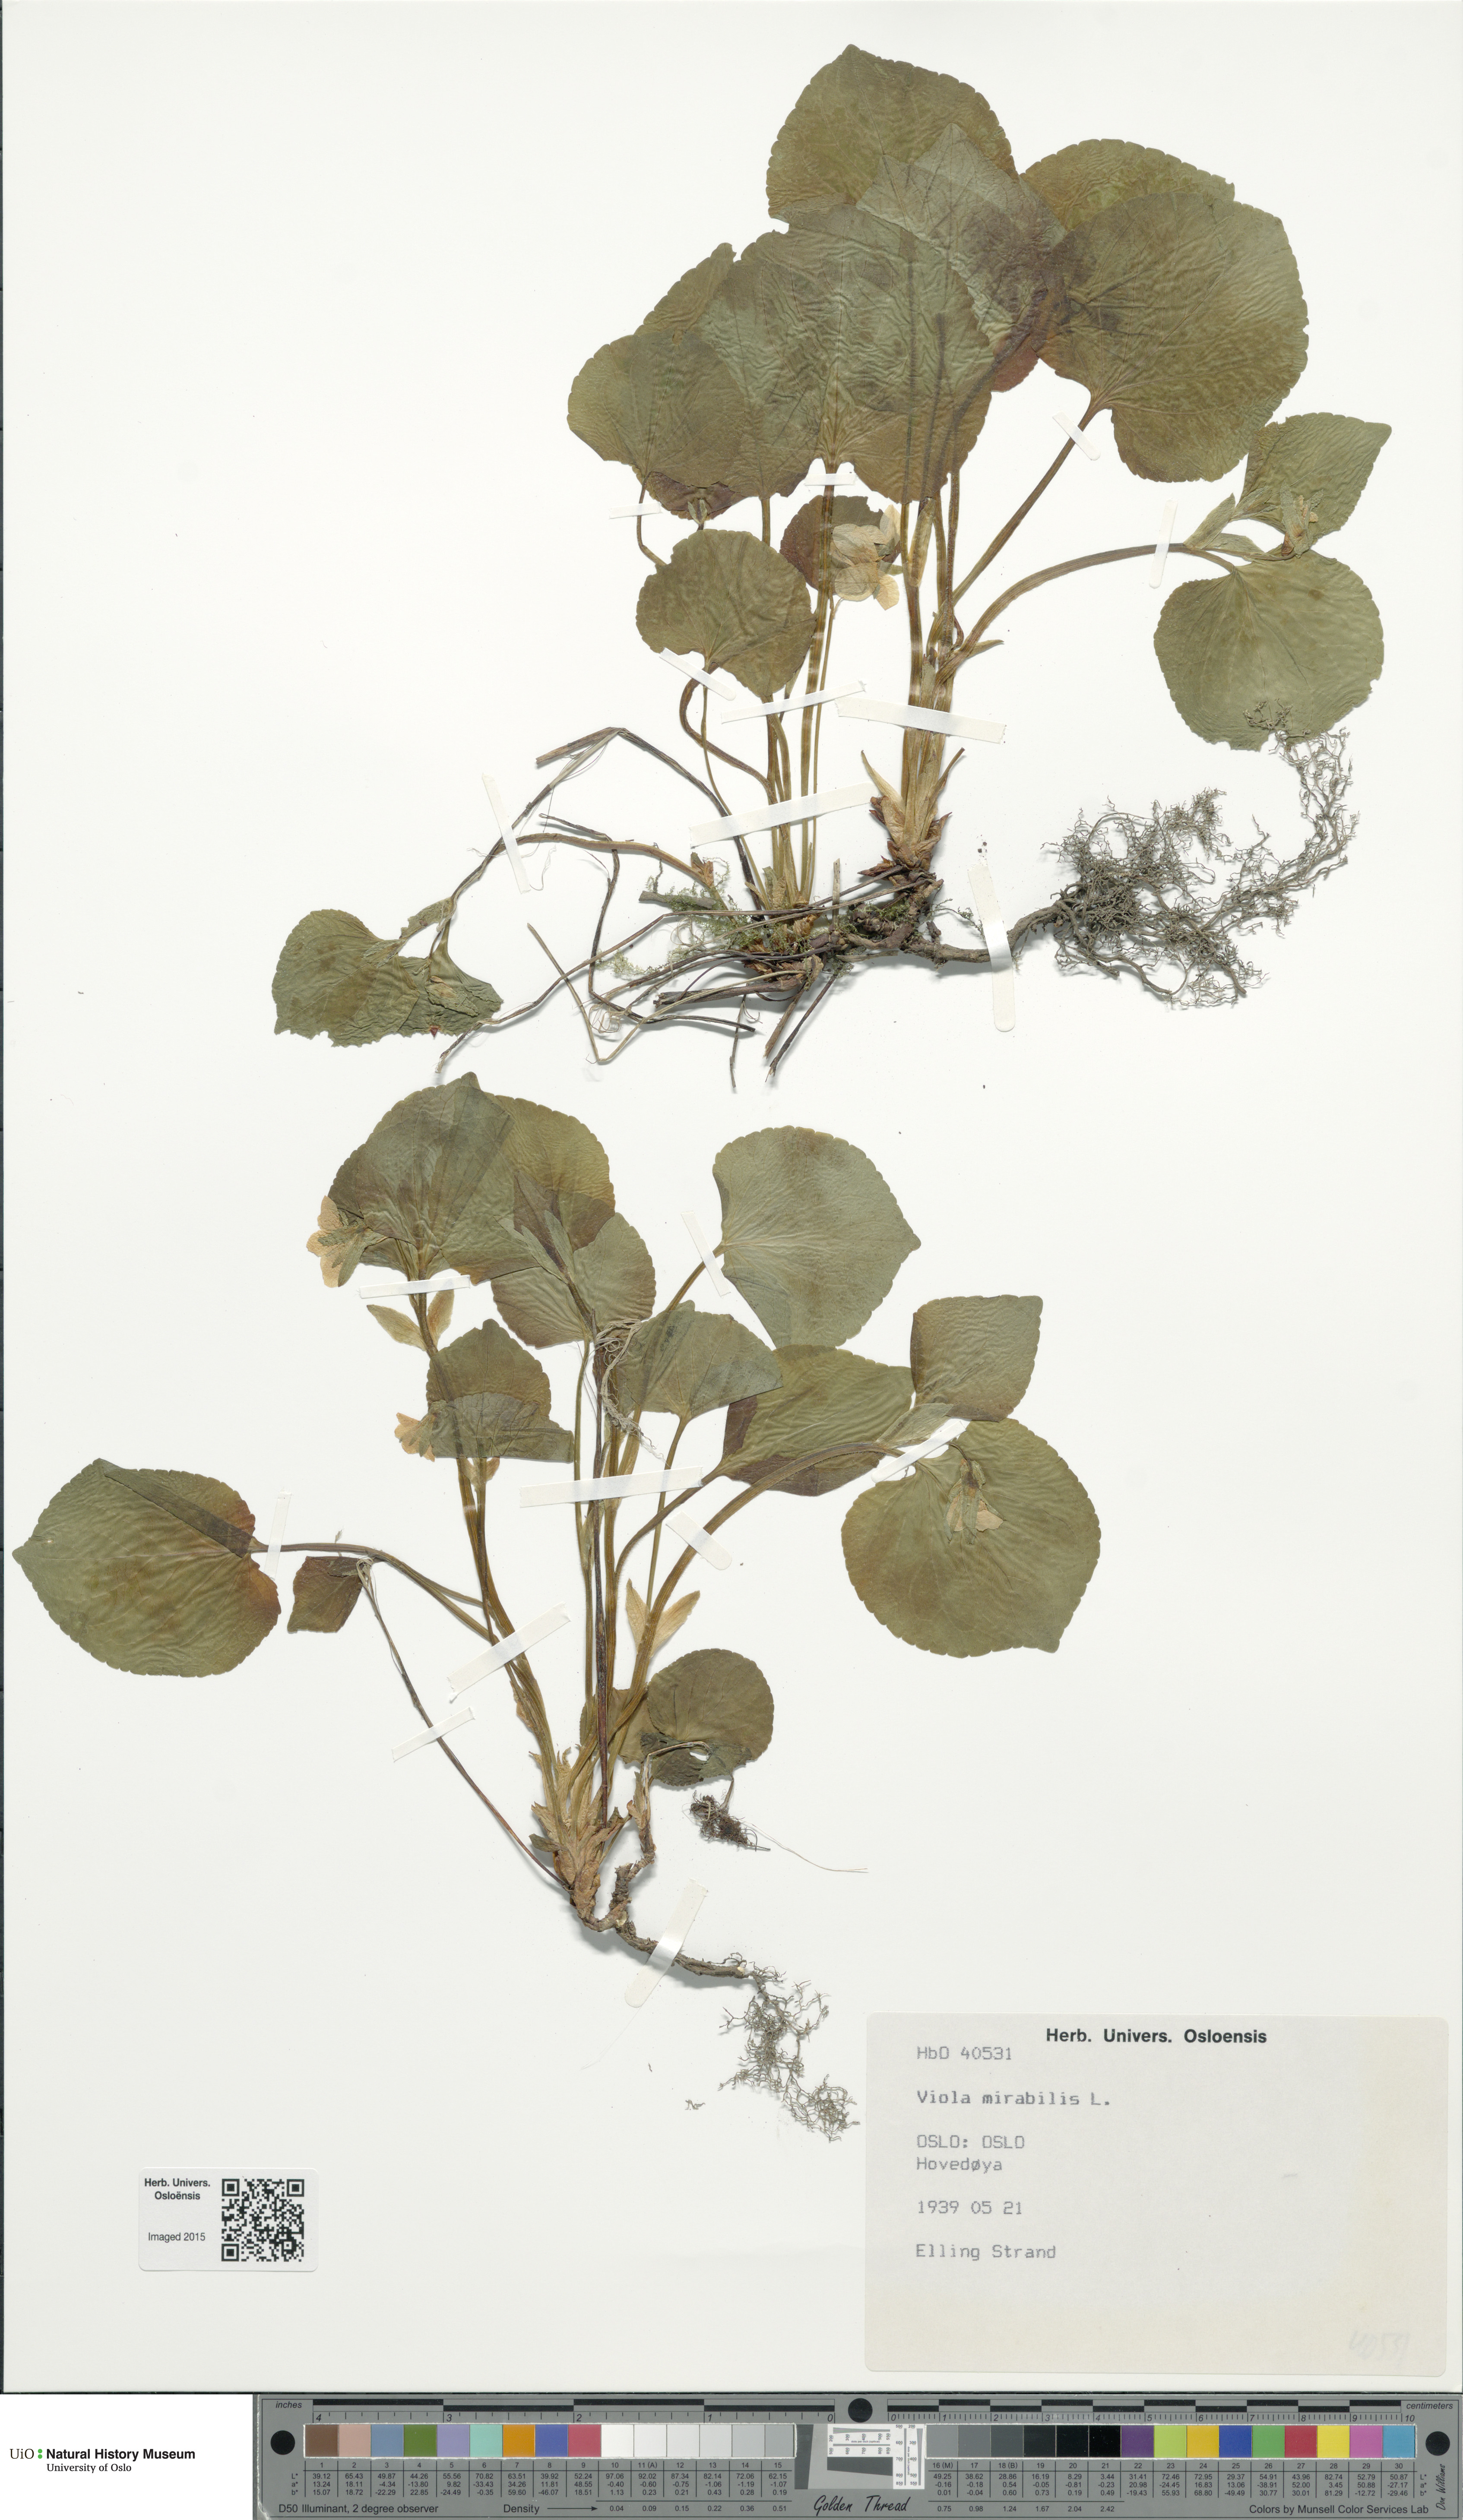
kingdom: Plantae
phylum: Tracheophyta
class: Magnoliopsida
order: Malpighiales
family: Violaceae
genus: Viola
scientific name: Viola mirabilis
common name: Wonder violet
